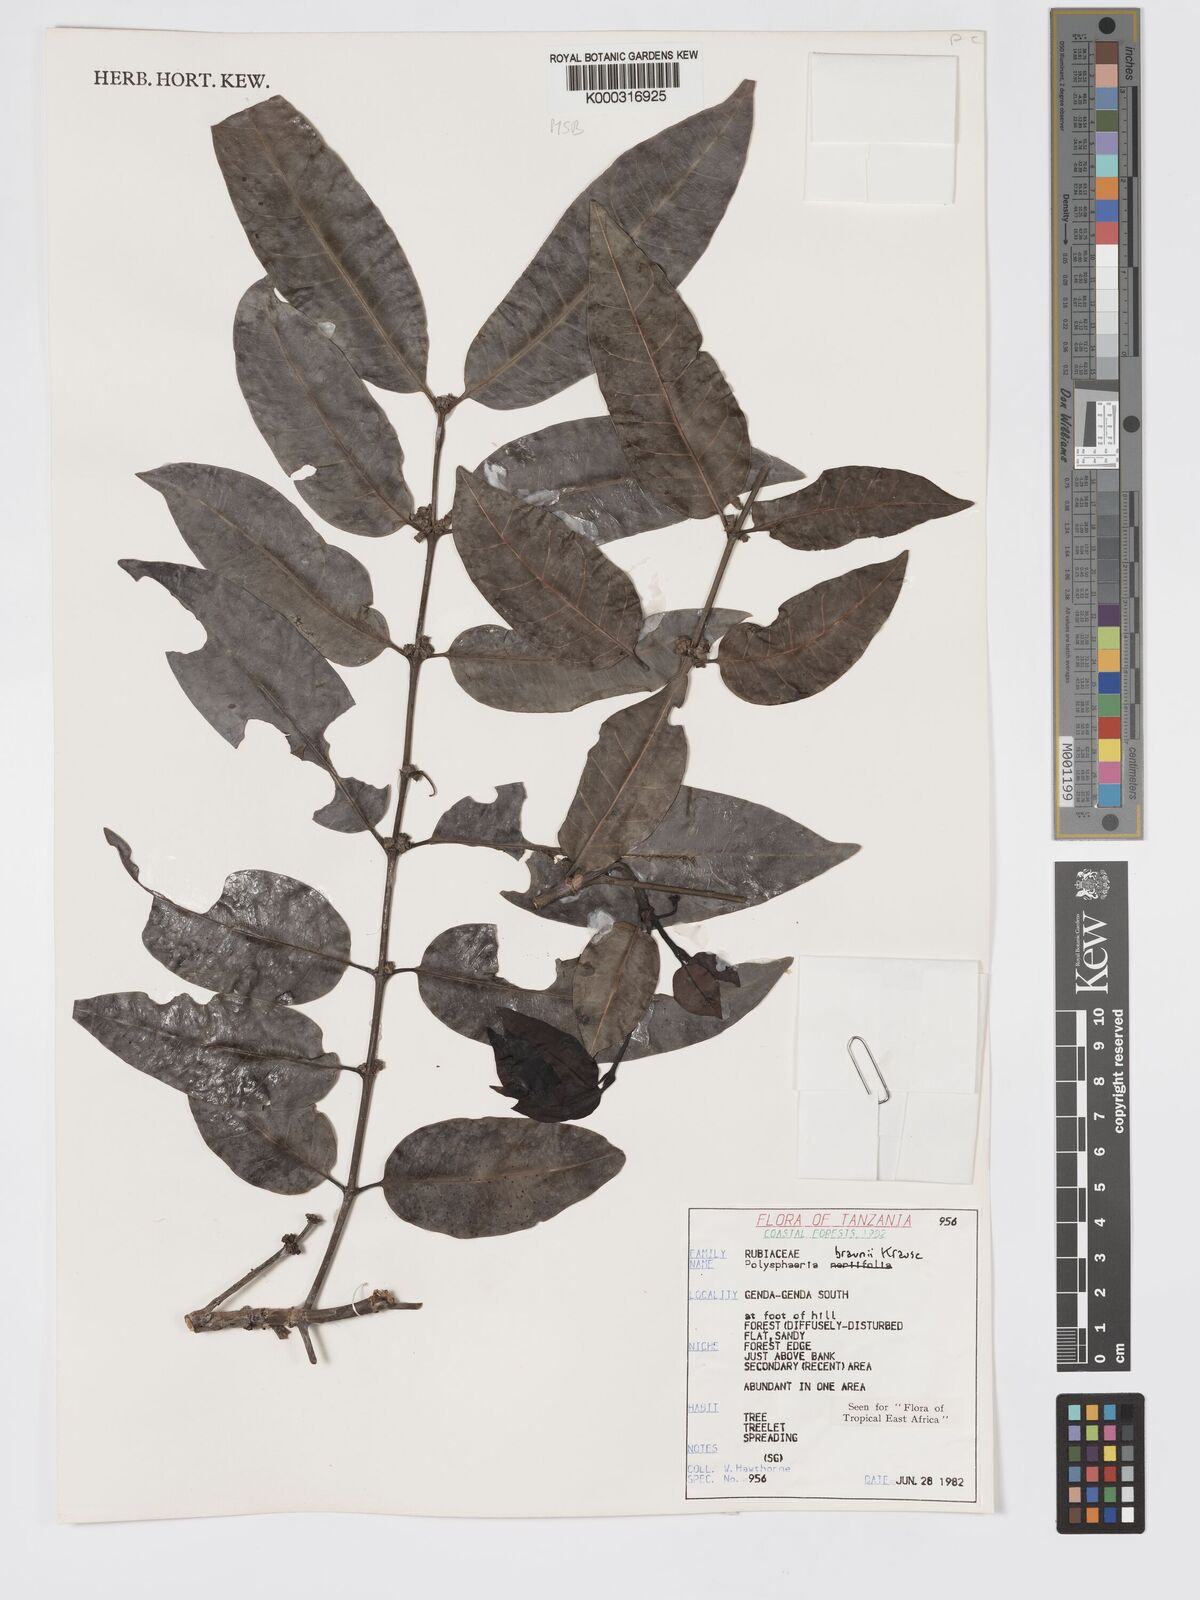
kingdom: Plantae
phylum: Tracheophyta
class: Magnoliopsida
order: Gentianales
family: Rubiaceae
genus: Polysphaeria
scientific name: Polysphaeria braunii
